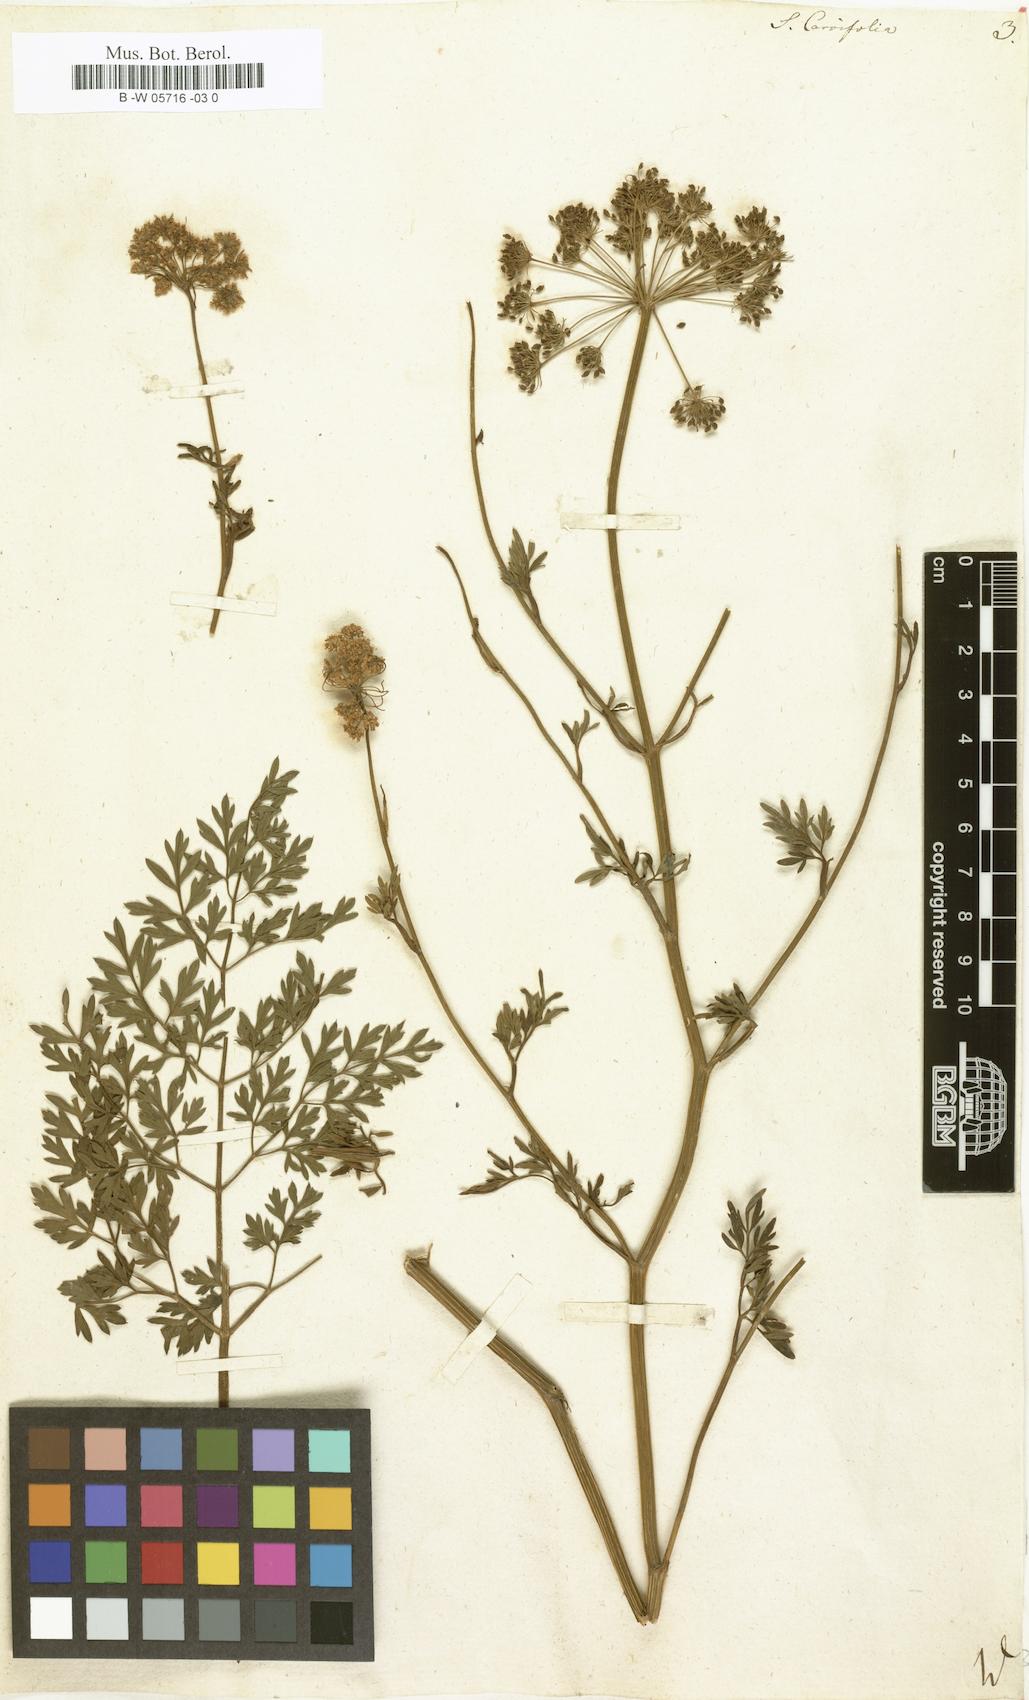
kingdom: Plantae
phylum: Tracheophyta
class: Magnoliopsida
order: Apiales
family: Apiaceae
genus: Selinum
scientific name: Selinum carvifolia
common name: Cambridge milk-parsley
